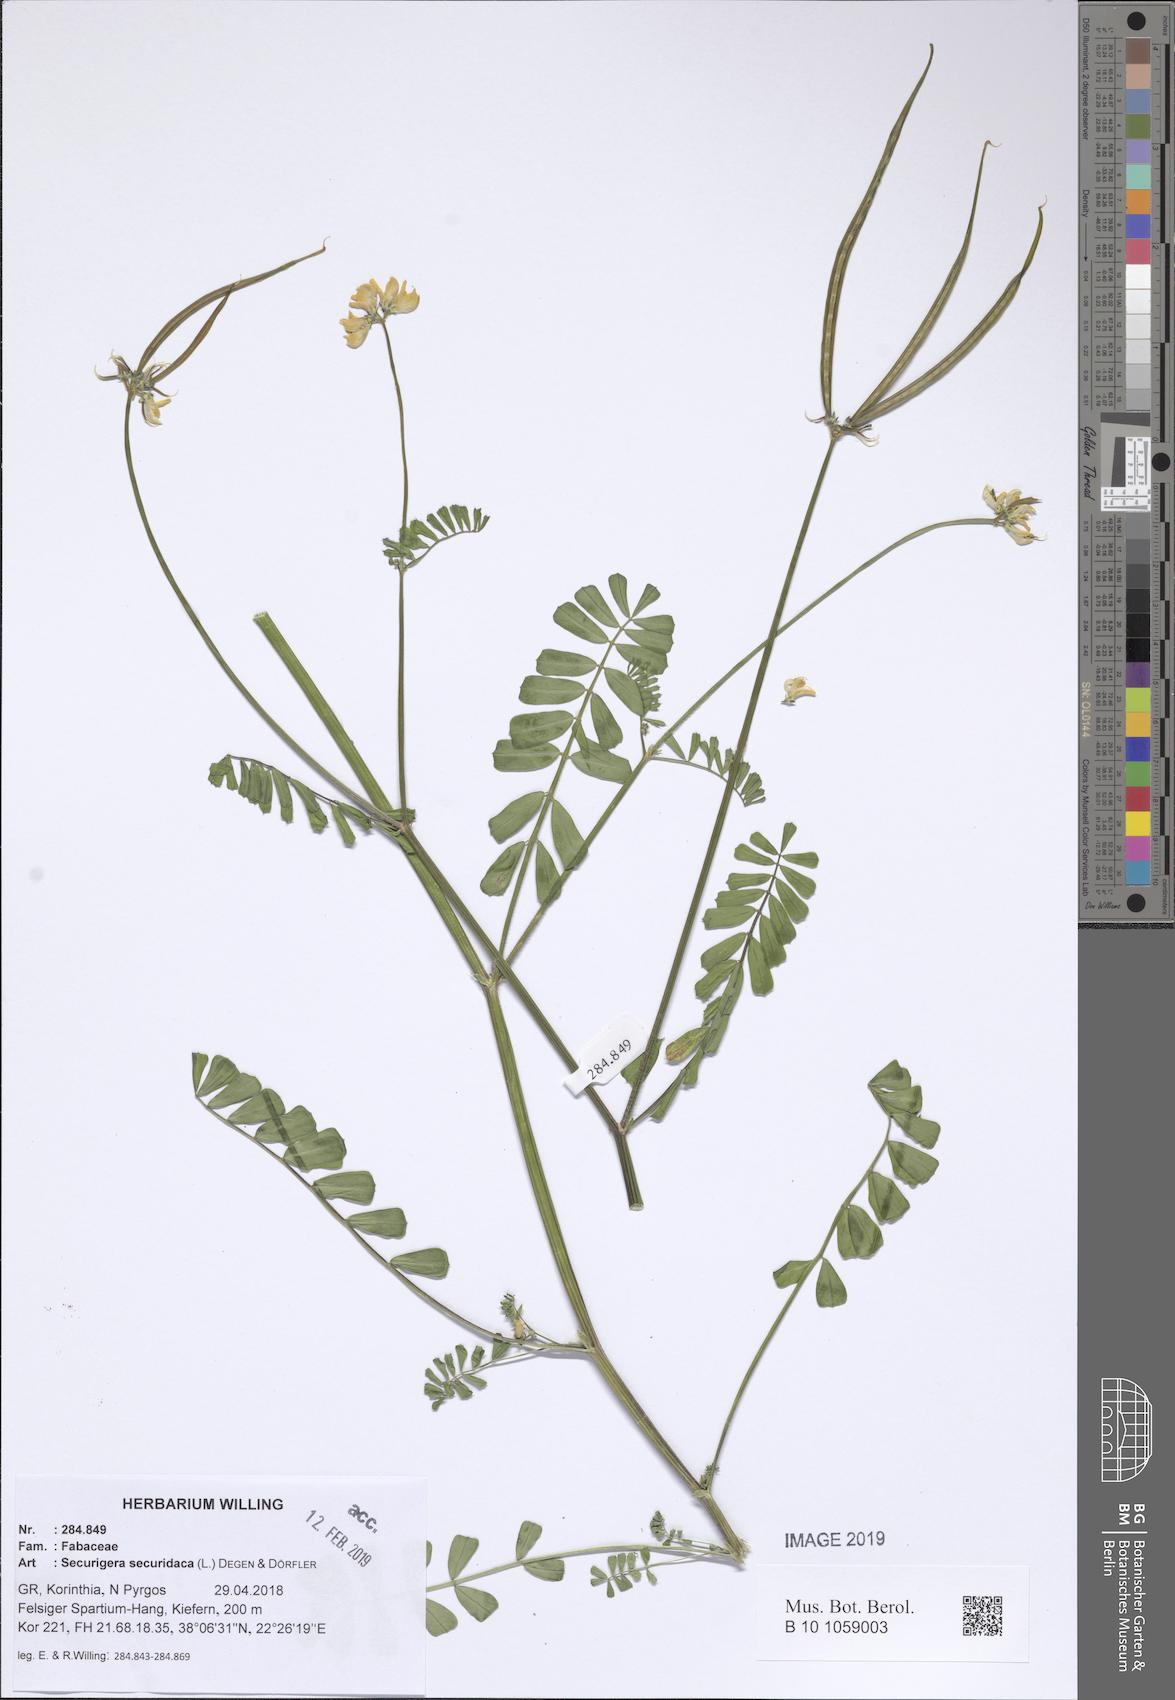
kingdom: Plantae
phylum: Tracheophyta
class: Magnoliopsida
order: Fabales
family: Fabaceae
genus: Coronilla
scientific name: Coronilla securidaca
